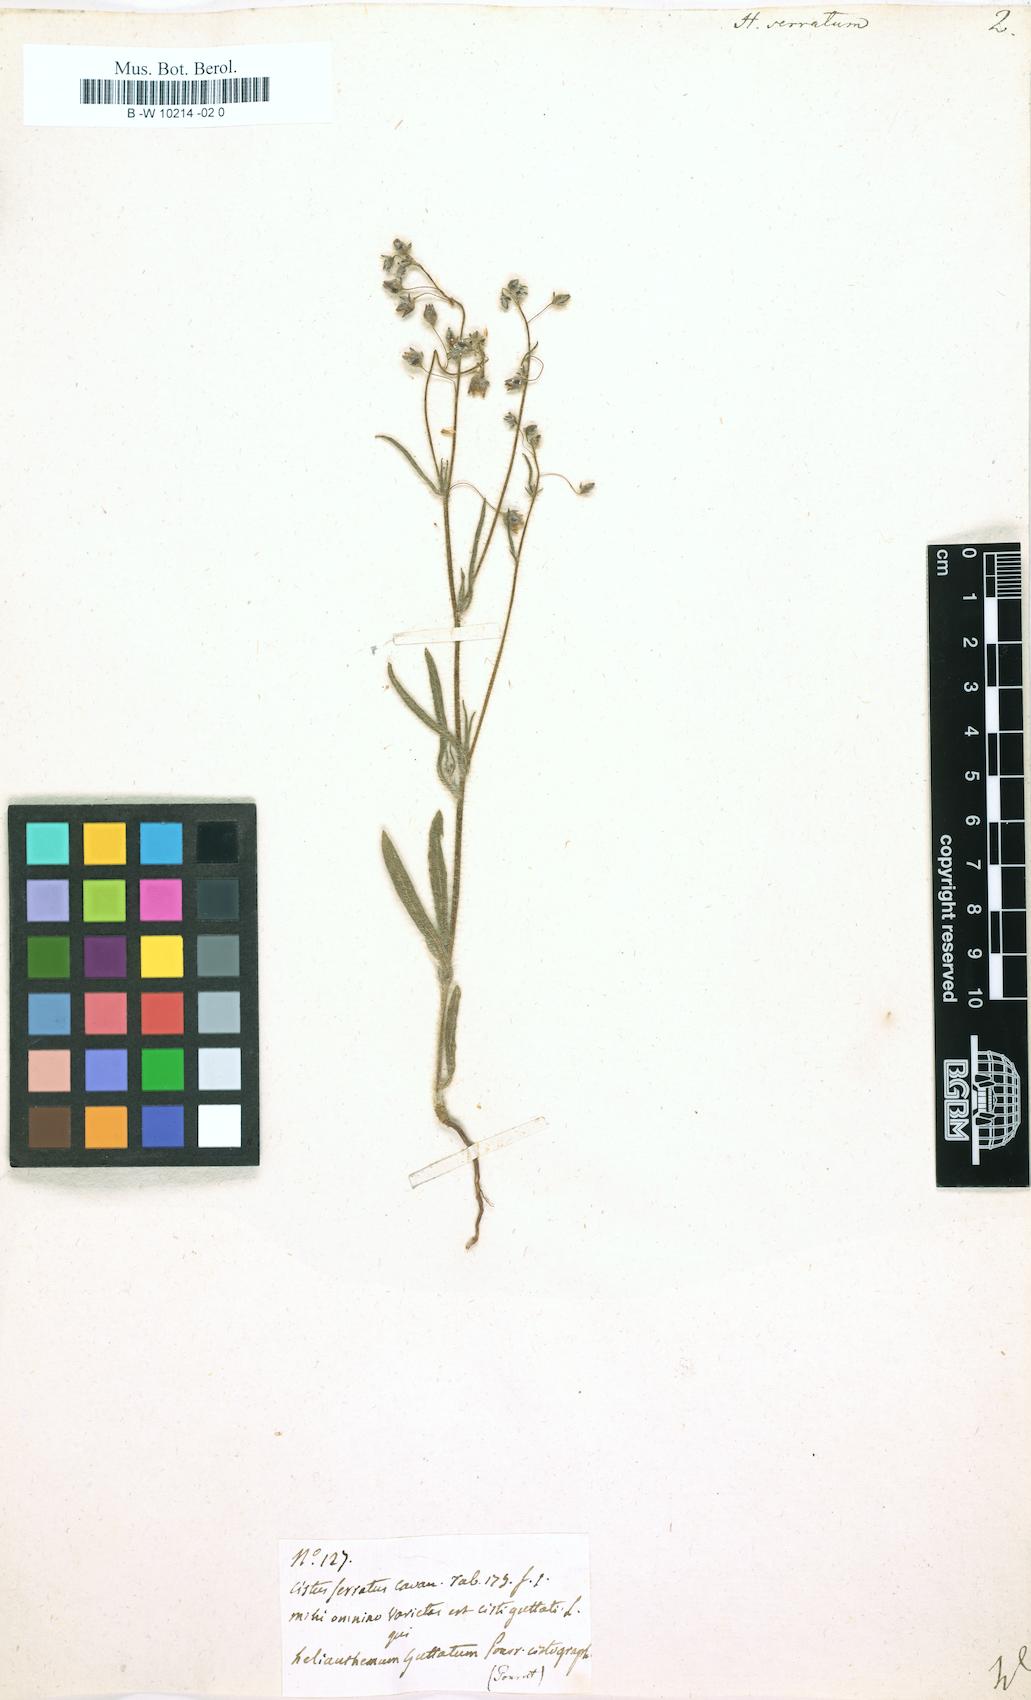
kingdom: Plantae
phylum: Tracheophyta
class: Magnoliopsida
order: Malvales
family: Cistaceae
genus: Tuberaria
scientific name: Tuberaria guttata
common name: Spotted rock-rose
